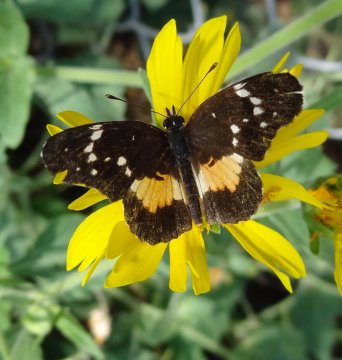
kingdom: Animalia
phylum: Arthropoda
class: Insecta
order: Lepidoptera
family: Nymphalidae
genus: Chlosyne
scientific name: Chlosyne rosita
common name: Rosita Patch
